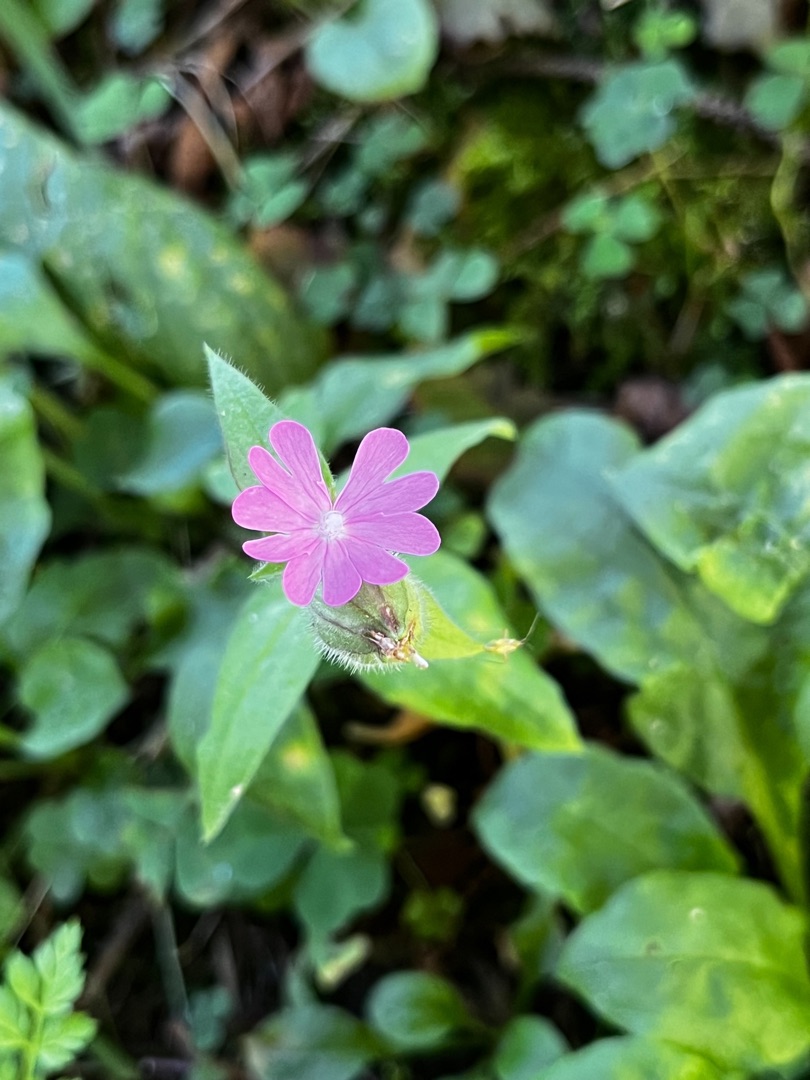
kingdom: Plantae
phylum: Tracheophyta
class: Magnoliopsida
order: Caryophyllales
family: Caryophyllaceae
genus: Silene
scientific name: Silene dioica
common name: Dagpragtstjerne
